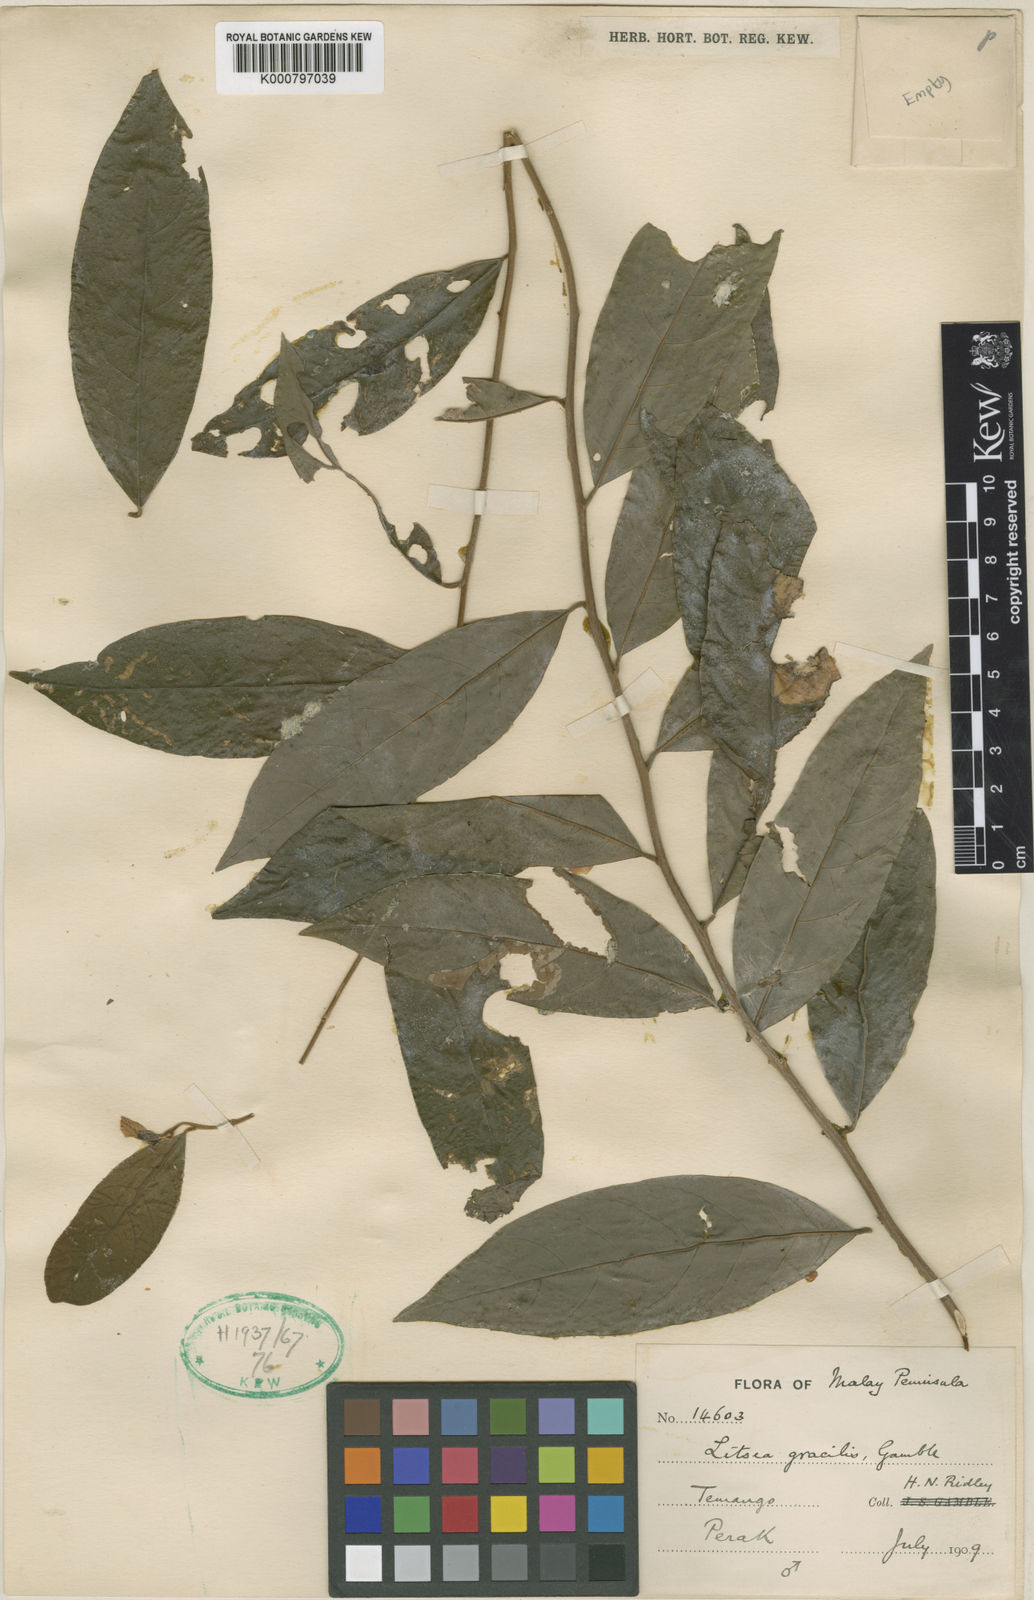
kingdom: Plantae
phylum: Tracheophyta
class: Magnoliopsida
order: Laurales
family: Lauraceae
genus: Litsea
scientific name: Litsea umbellata
